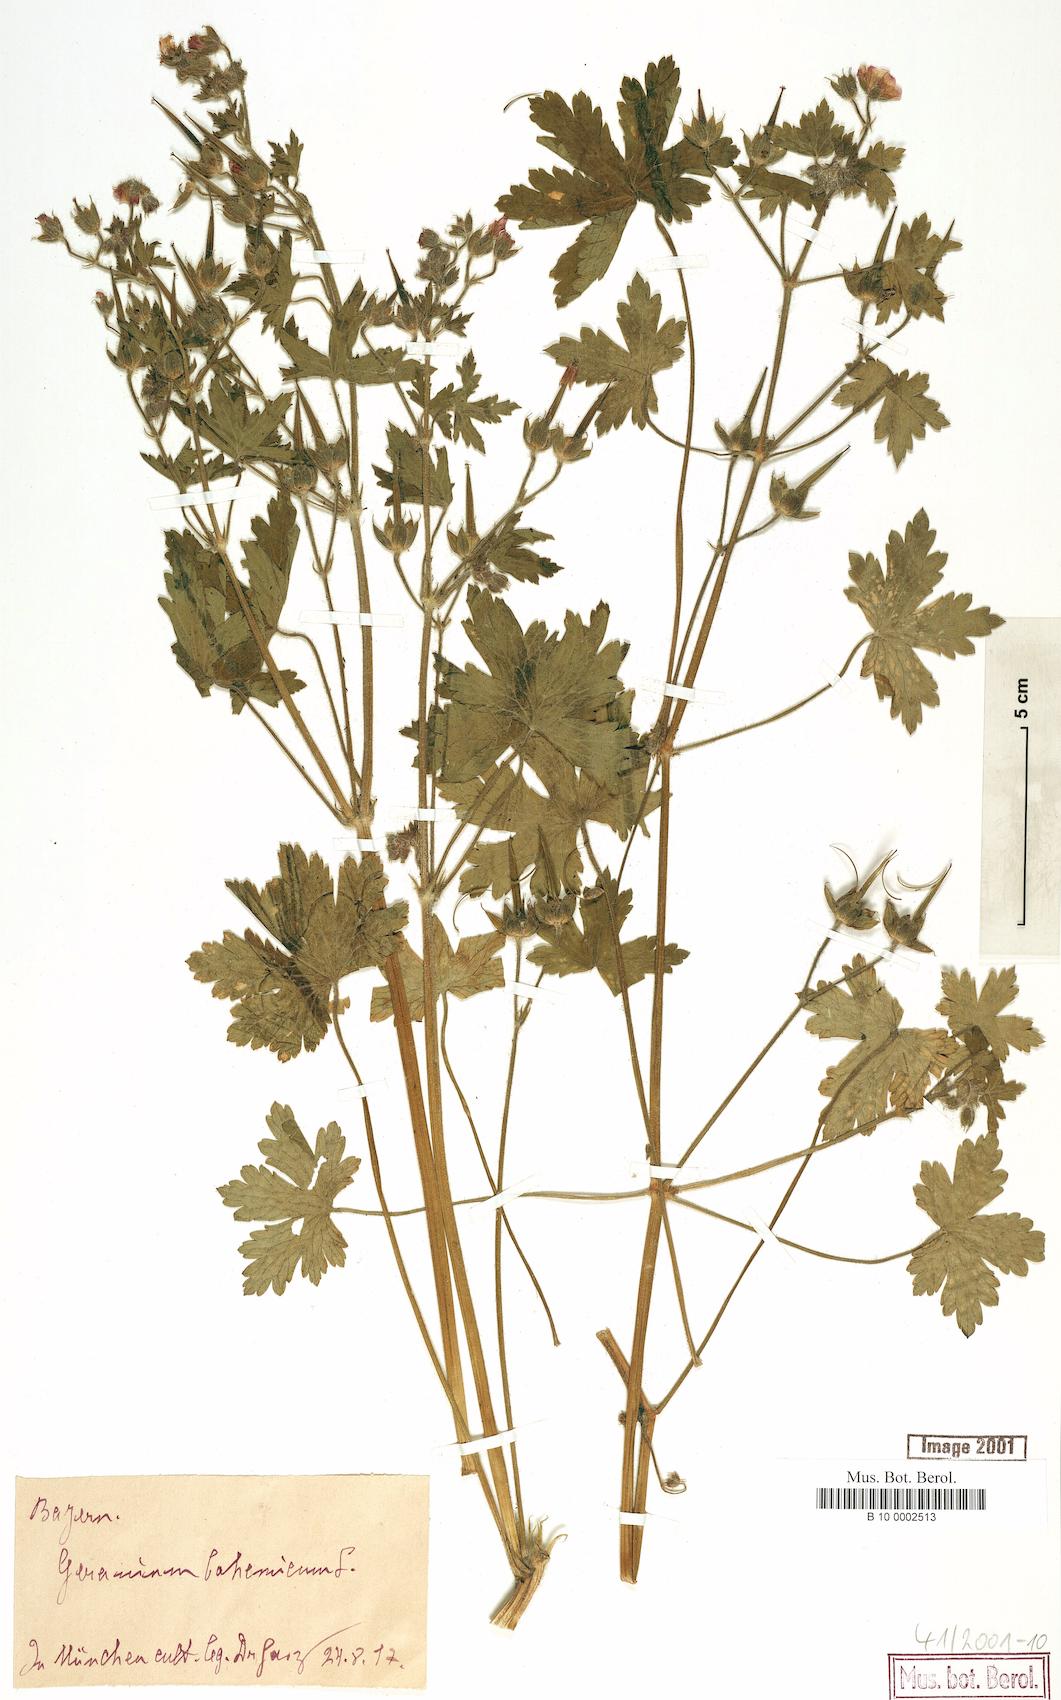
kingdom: Plantae
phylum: Tracheophyta
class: Magnoliopsida
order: Geraniales
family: Geraniaceae
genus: Geranium
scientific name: Geranium bohemicum
